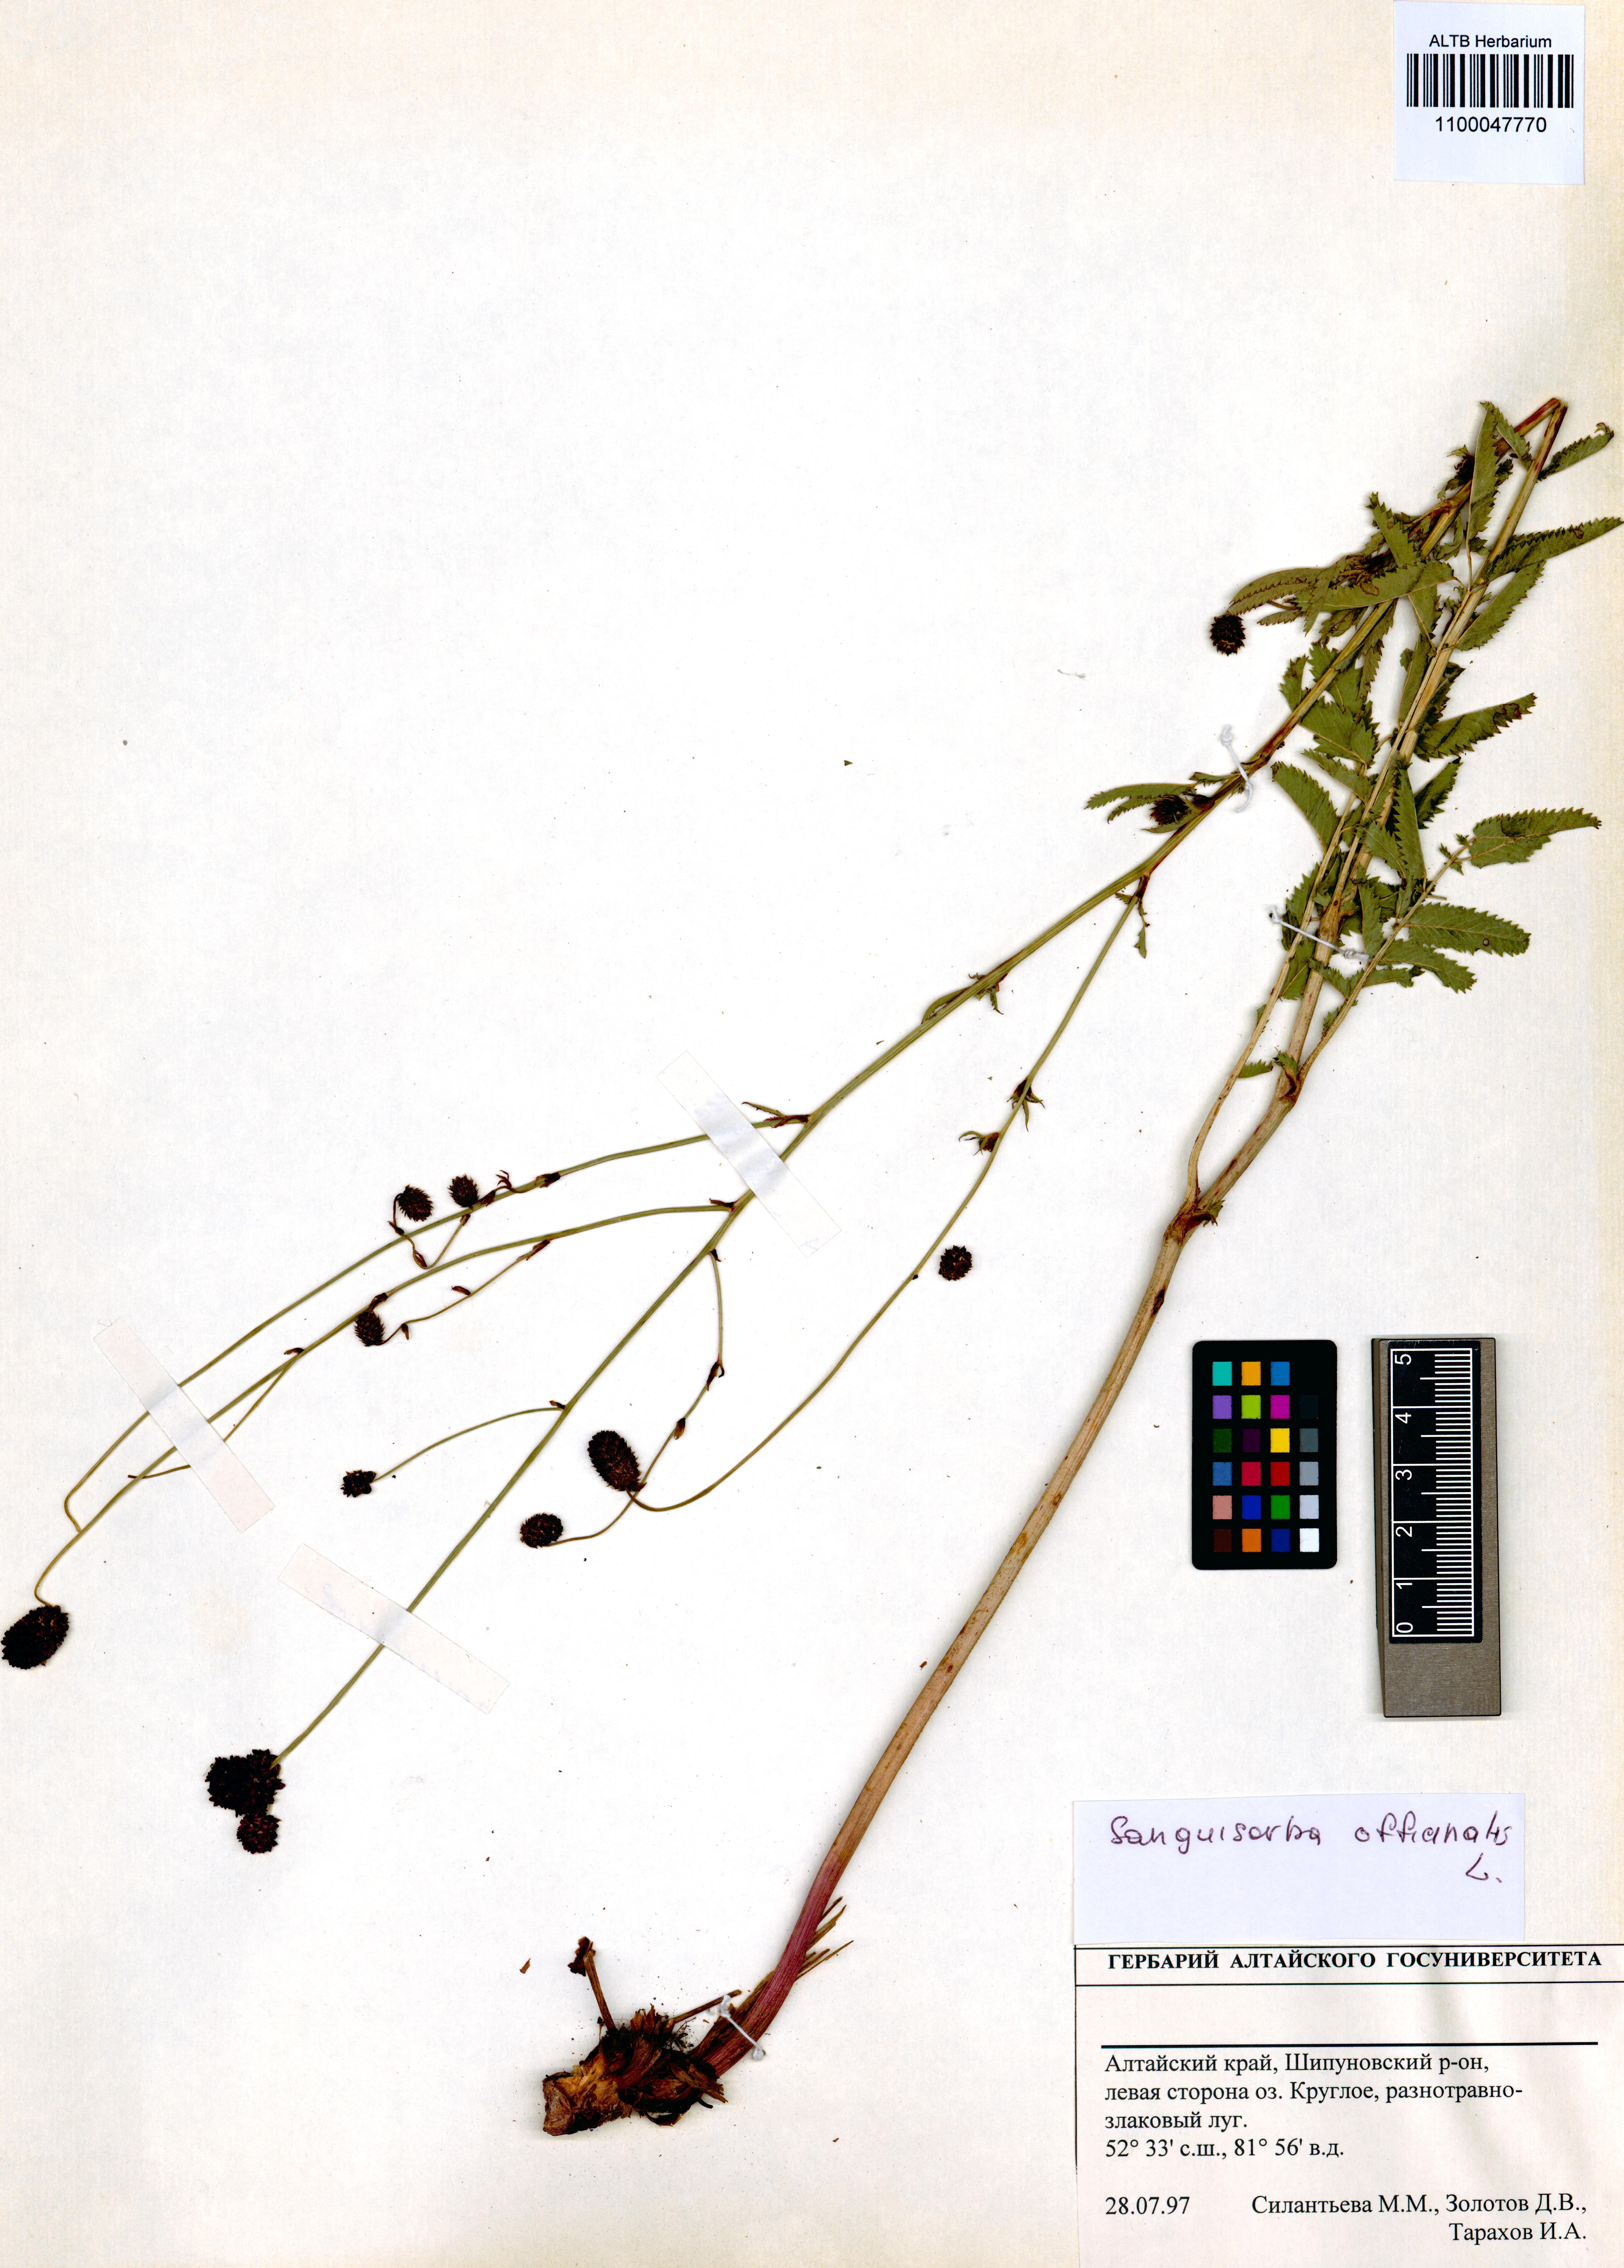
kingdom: Plantae
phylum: Tracheophyta
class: Magnoliopsida
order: Rosales
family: Rosaceae
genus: Sanguisorba
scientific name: Sanguisorba officinalis
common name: Great burnet
